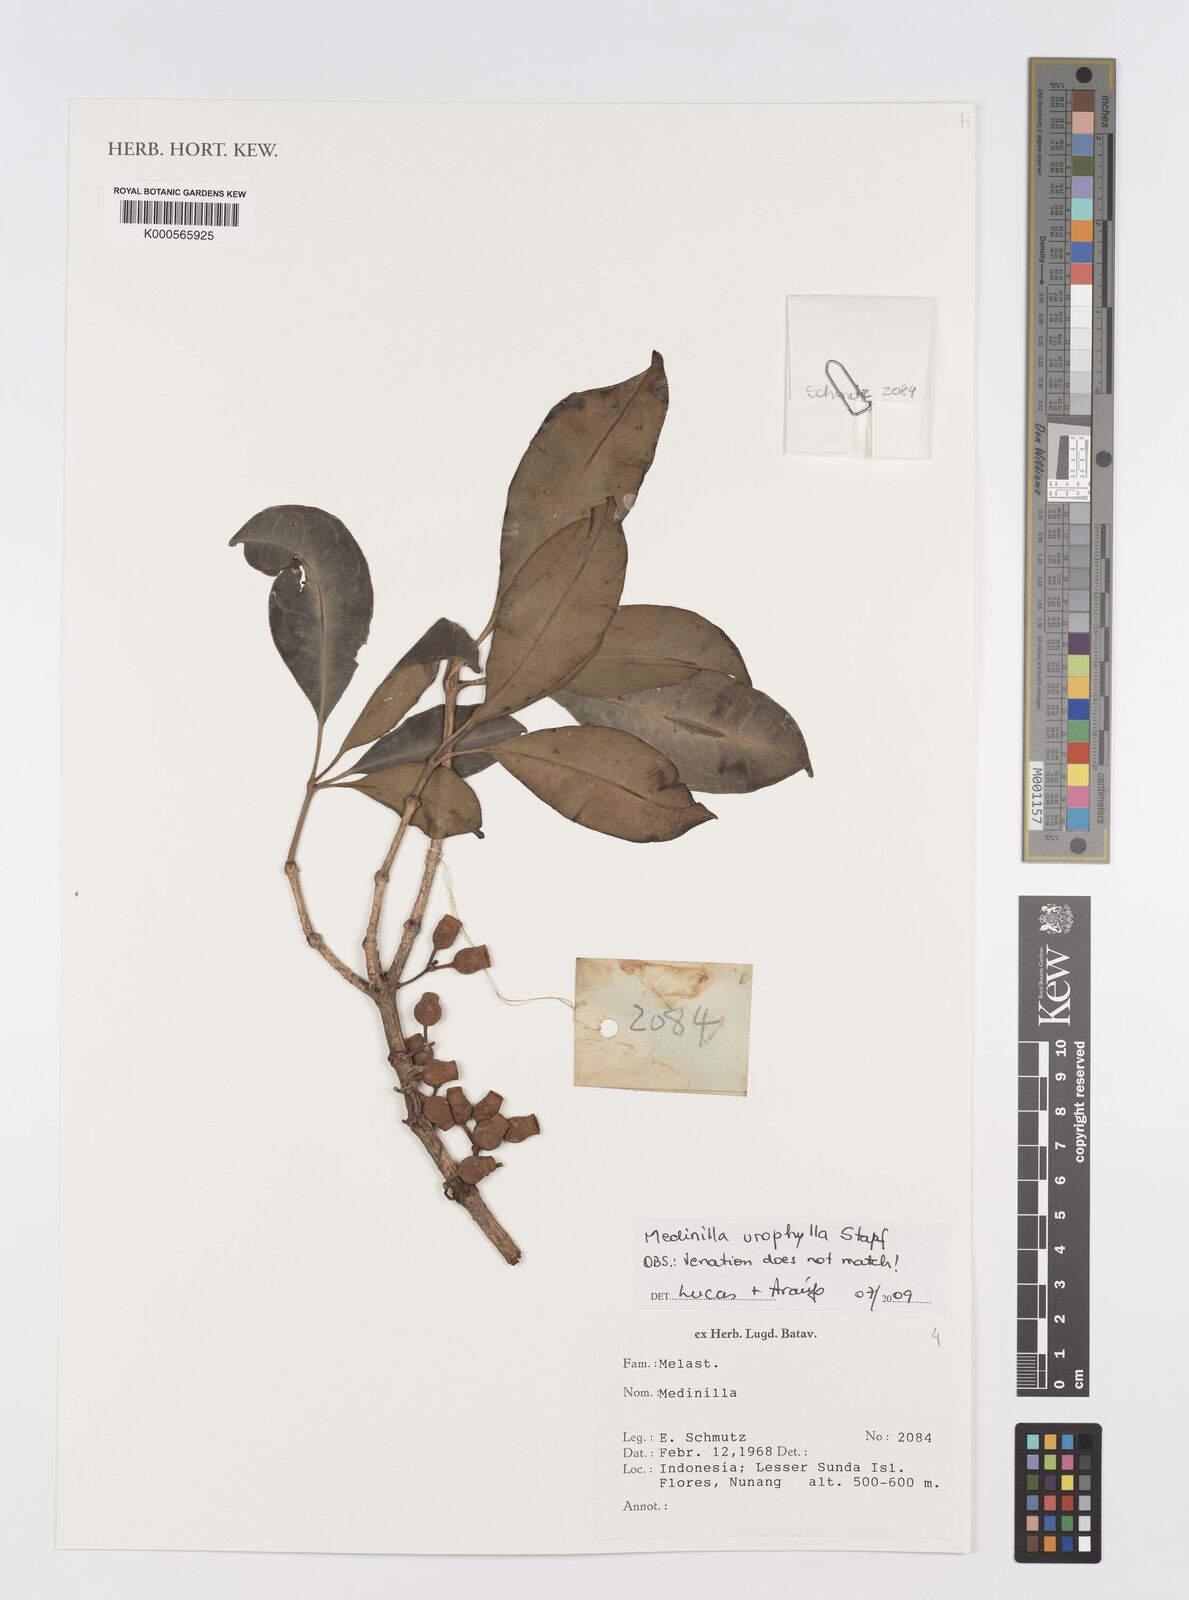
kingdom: Plantae
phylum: Tracheophyta
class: Magnoliopsida
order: Myrtales
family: Melastomataceae
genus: Medinilla
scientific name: Medinilla urophylla
